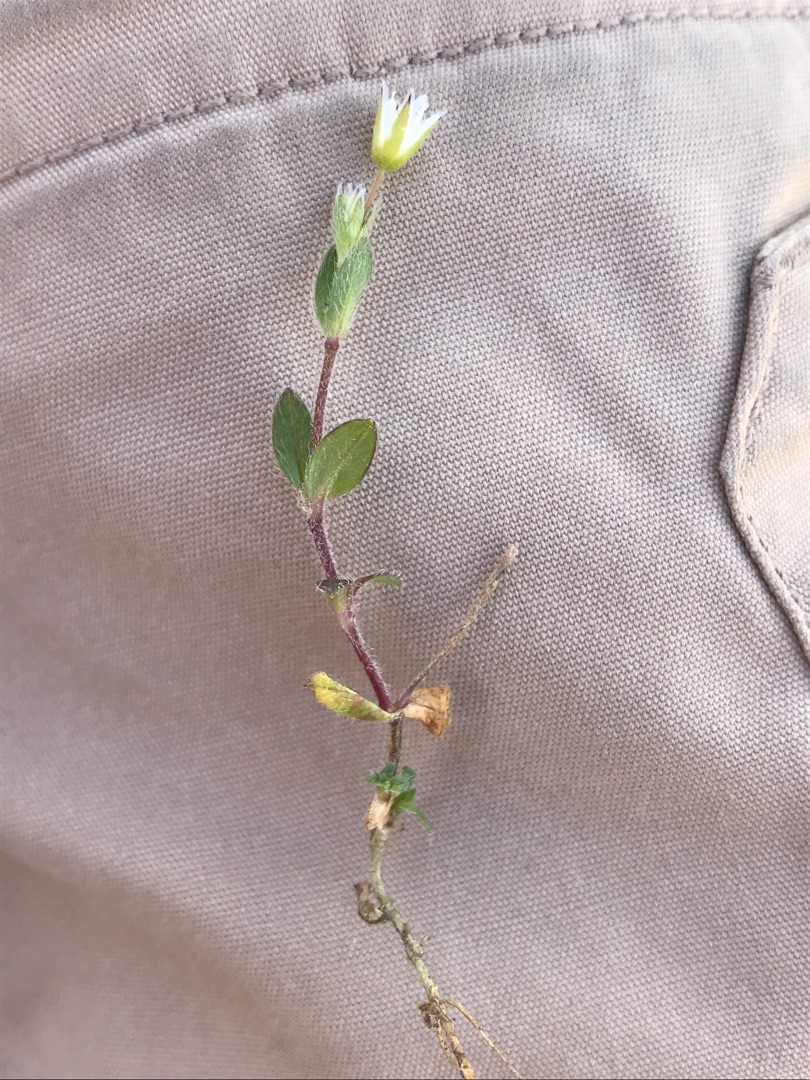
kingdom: Plantae
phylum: Tracheophyta
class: Magnoliopsida
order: Caryophyllales
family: Caryophyllaceae
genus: Cerastium
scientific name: Cerastium fontanum
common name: Almindelig hønsetarm
